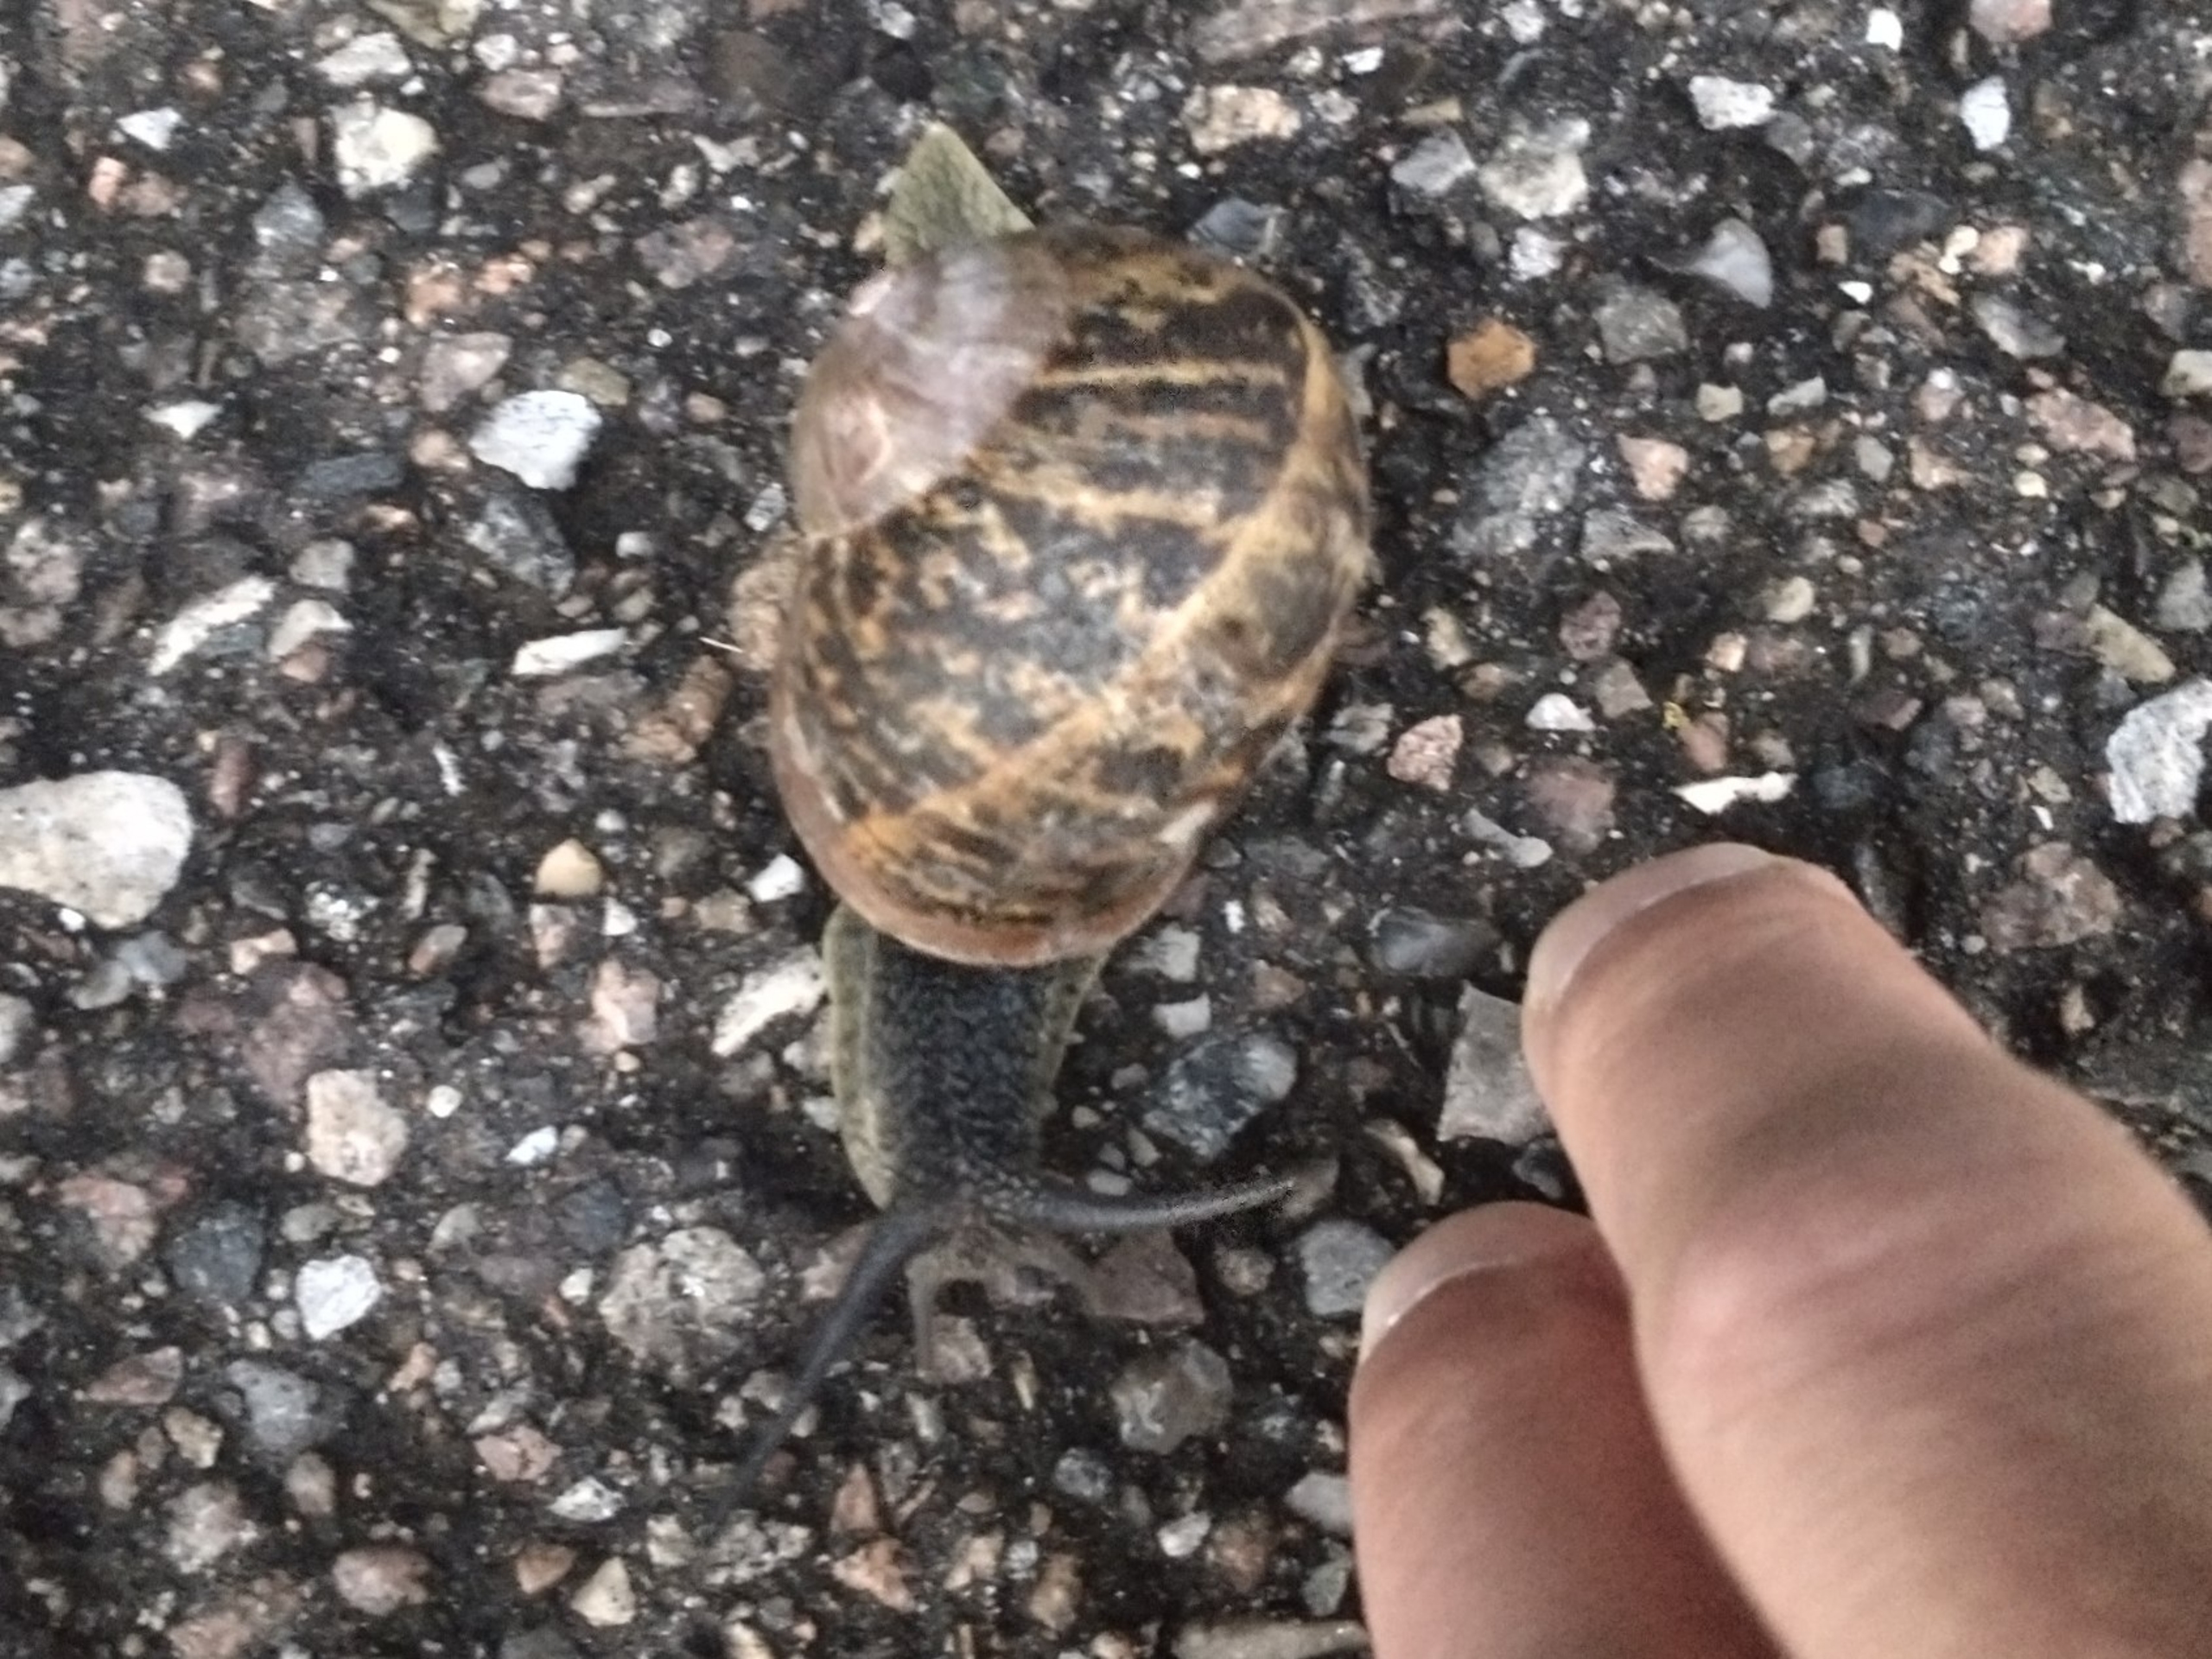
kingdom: Animalia
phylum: Mollusca
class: Gastropoda
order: Stylommatophora
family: Helicidae
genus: Cornu
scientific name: Cornu aspersum
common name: Plettet voldsnegl
